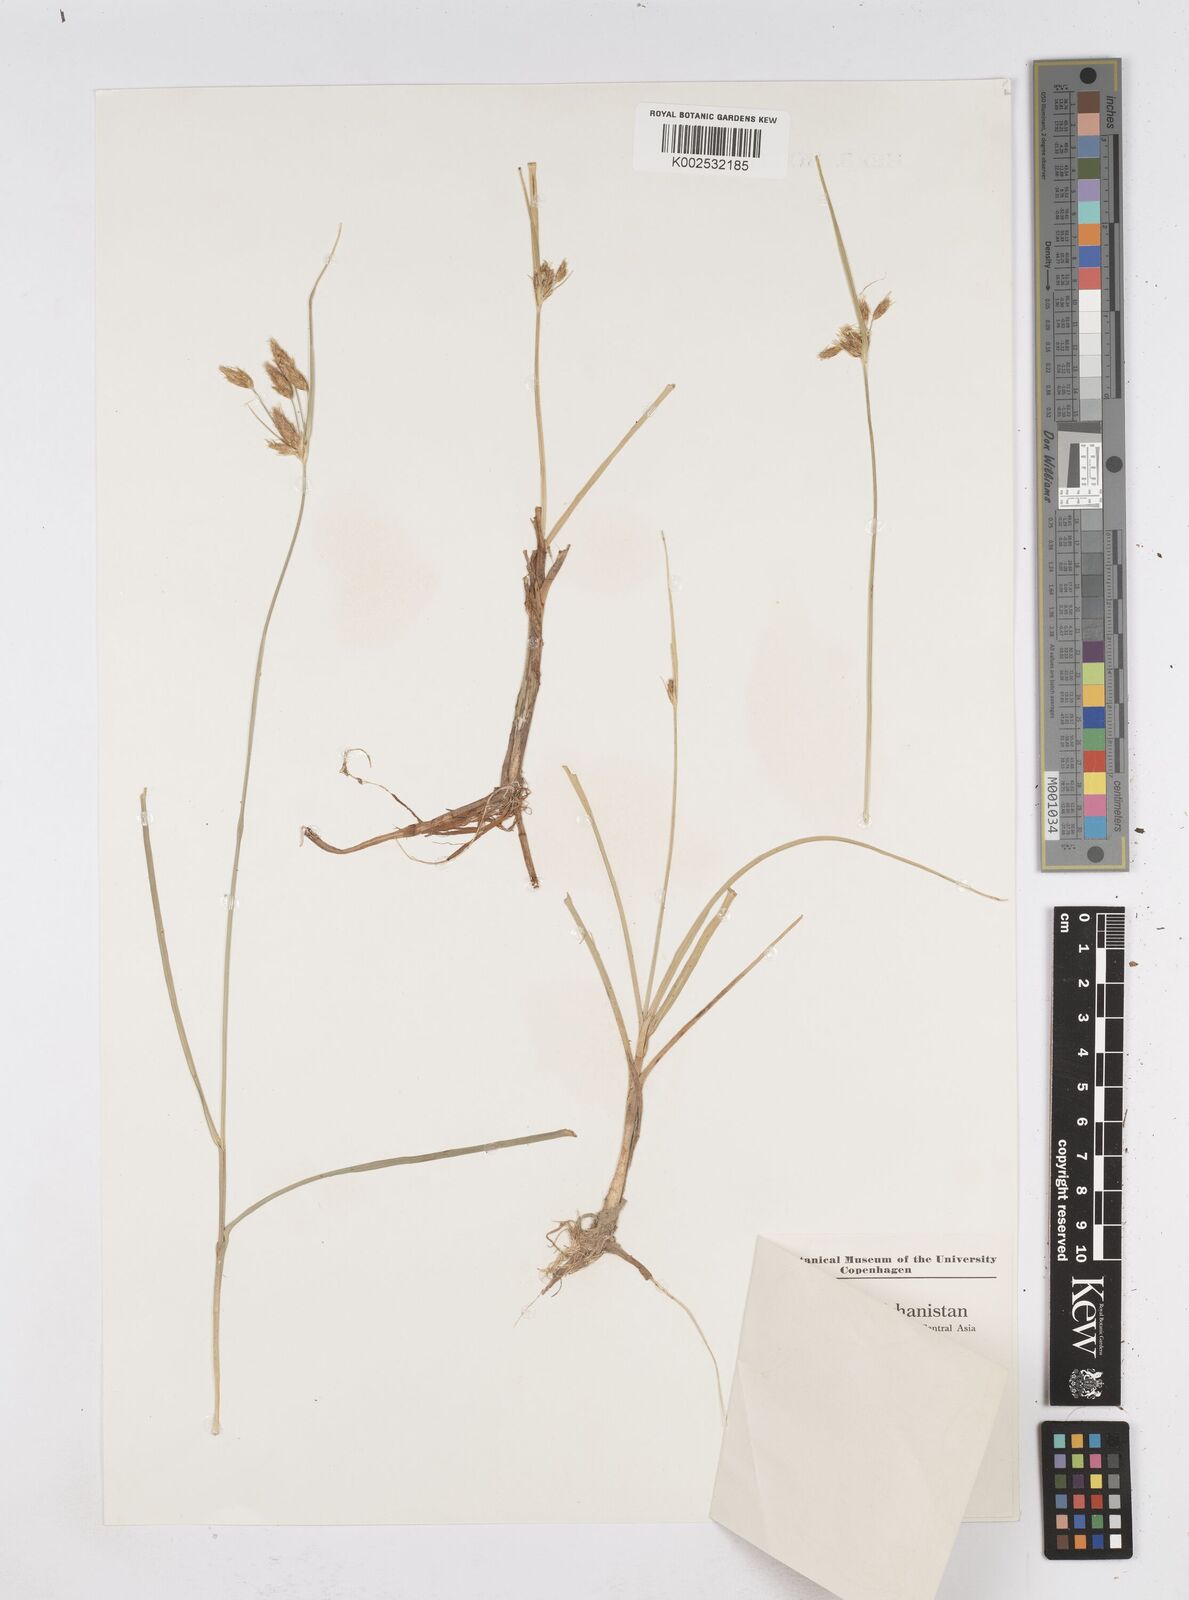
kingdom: Plantae
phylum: Tracheophyta
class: Liliopsida
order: Poales
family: Cyperaceae
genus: Bolboschoenus
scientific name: Bolboschoenus maritimus
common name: Sea club-rush
